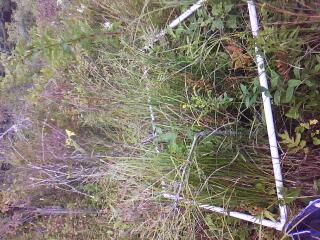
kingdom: Plantae
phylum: Tracheophyta
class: Magnoliopsida
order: Rosales
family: Rosaceae
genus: Rubus
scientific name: Rubus pubescens
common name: Dwarf raspberry
